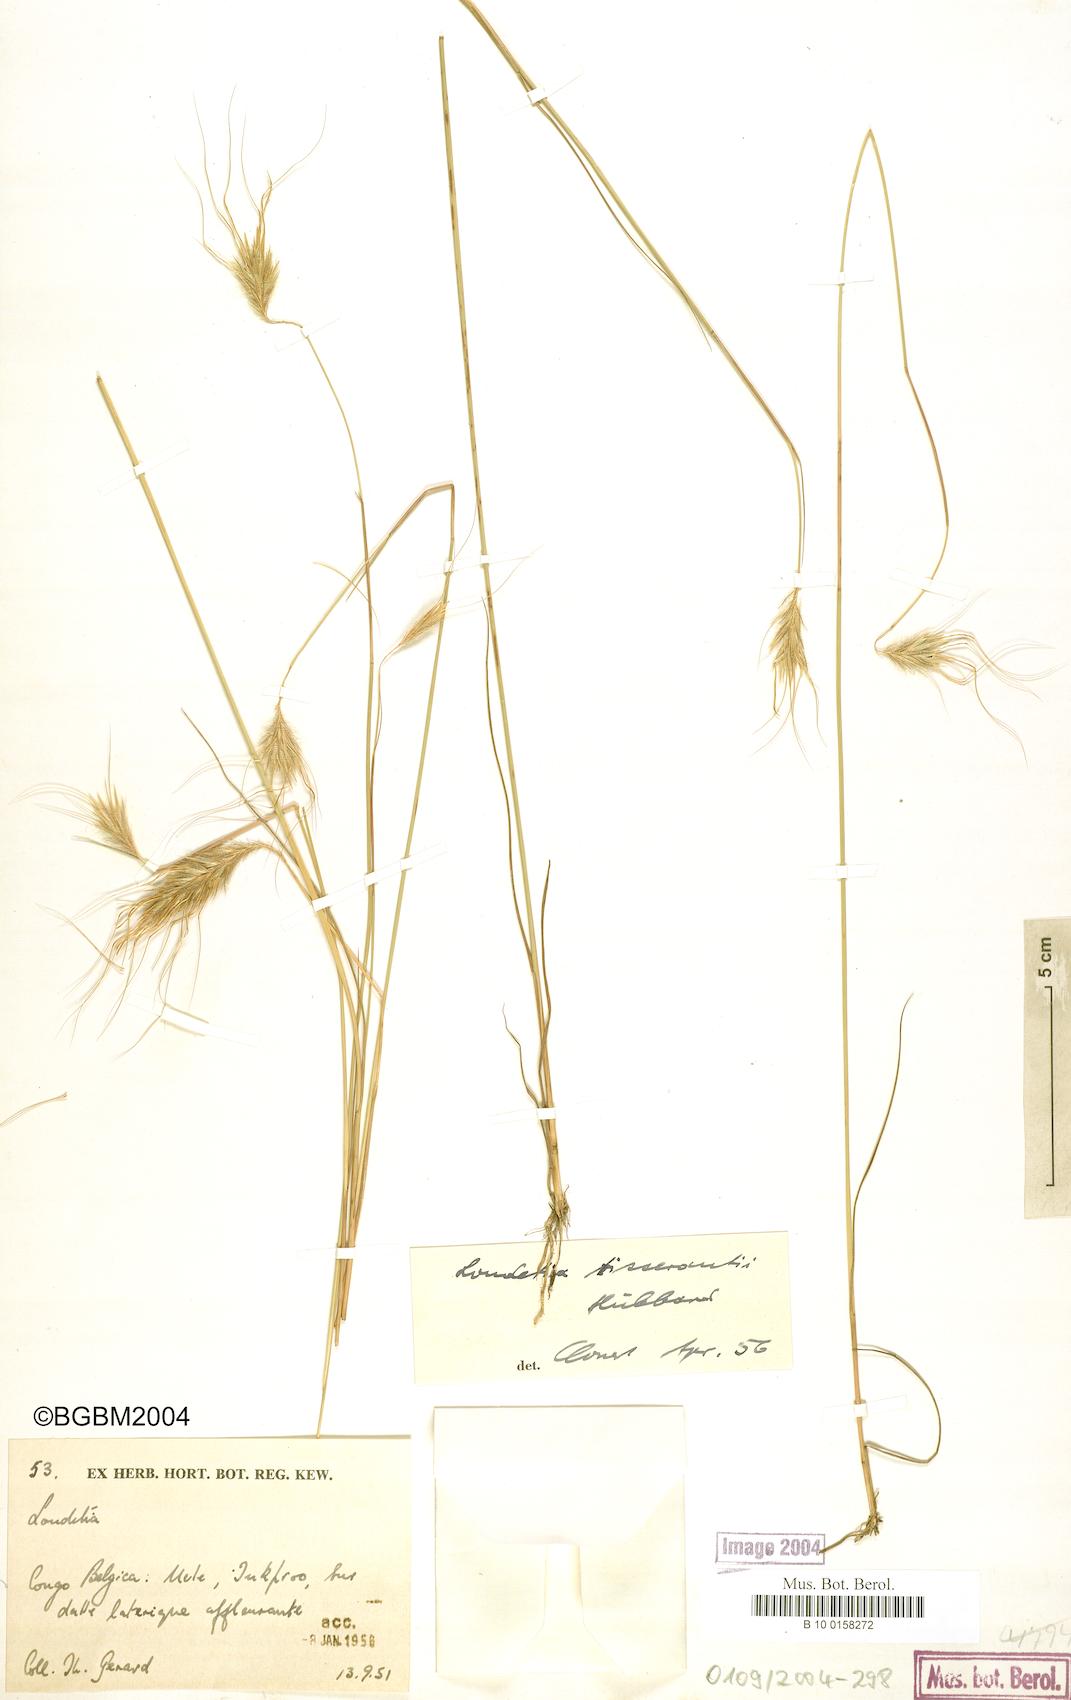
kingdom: Plantae
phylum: Tracheophyta
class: Liliopsida
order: Poales
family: Poaceae
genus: Loudetia
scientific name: Loudetia tisserantii
